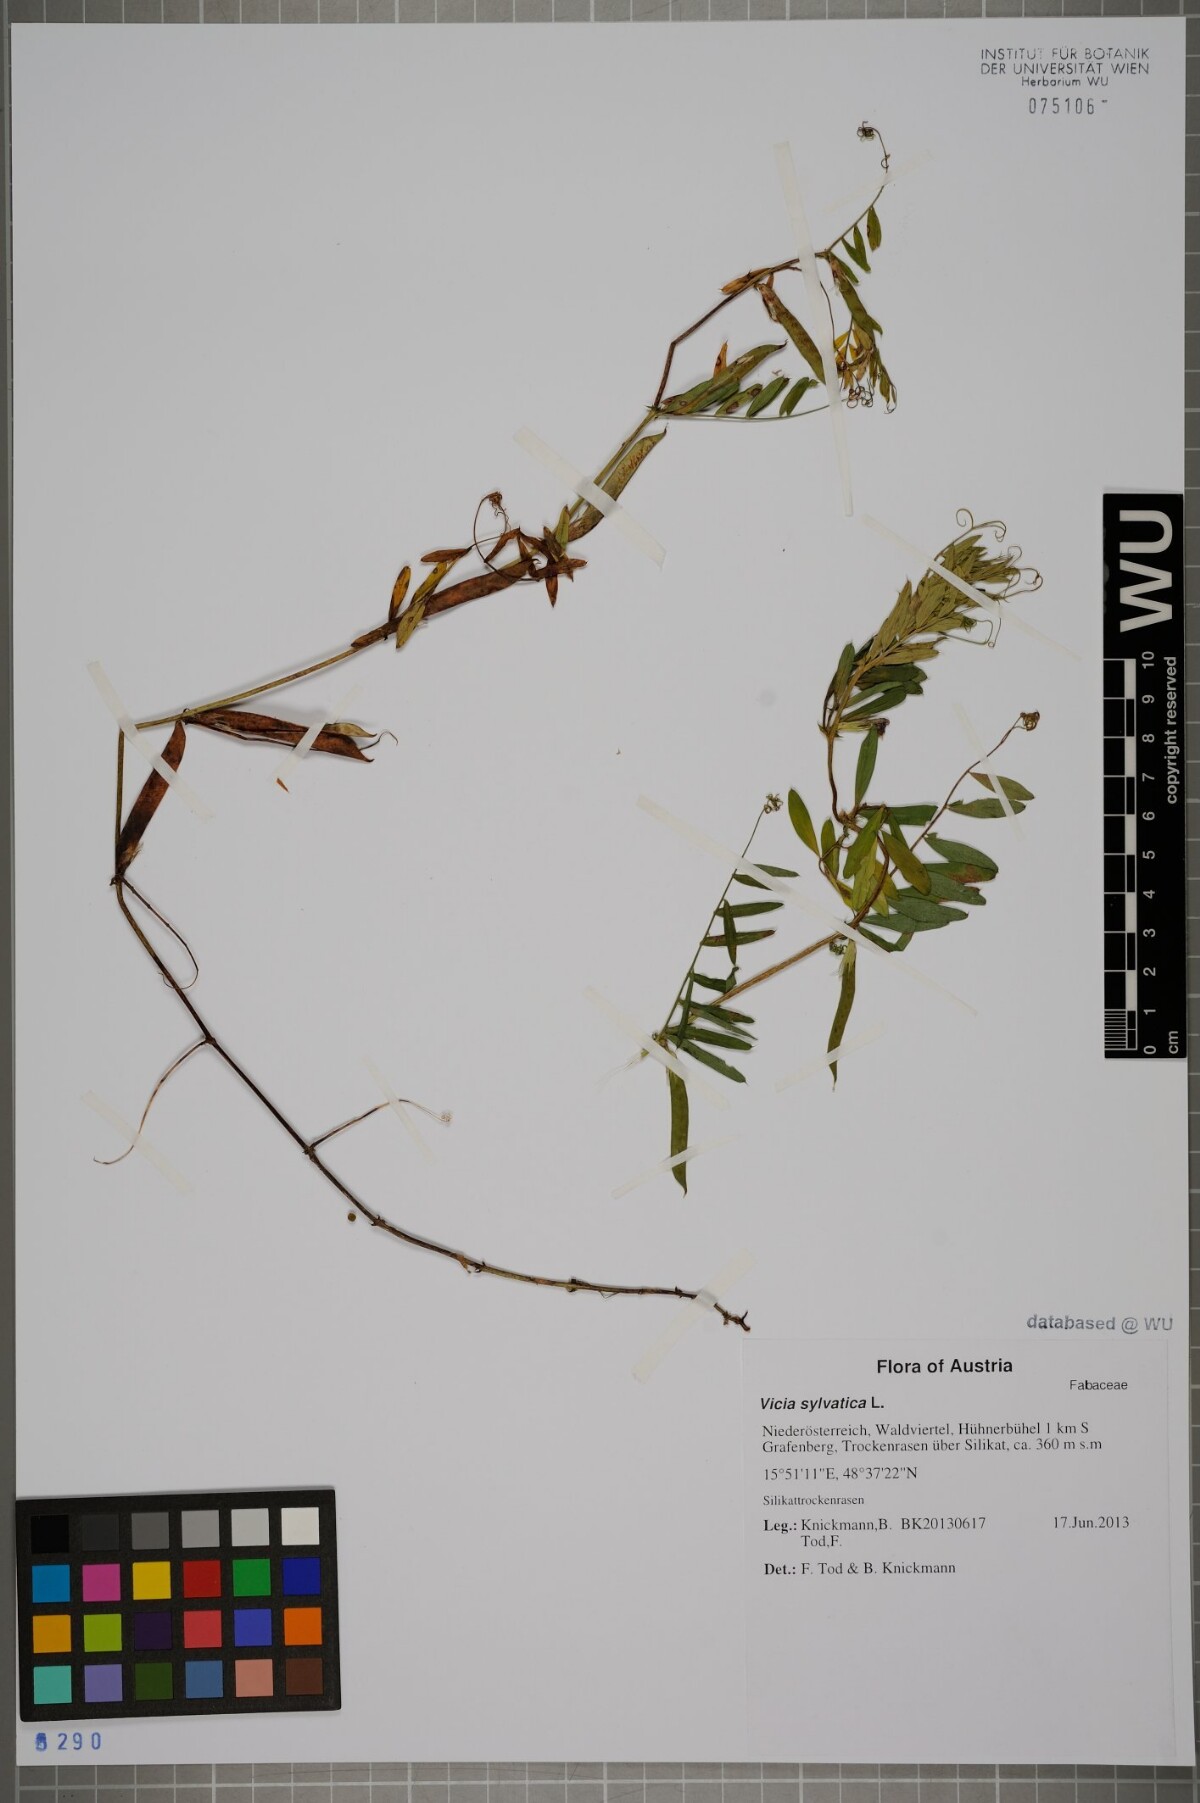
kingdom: Plantae
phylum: Tracheophyta
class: Magnoliopsida
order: Fabales
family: Fabaceae
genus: Vicia
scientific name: Vicia sylvatica
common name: Wood vetch
